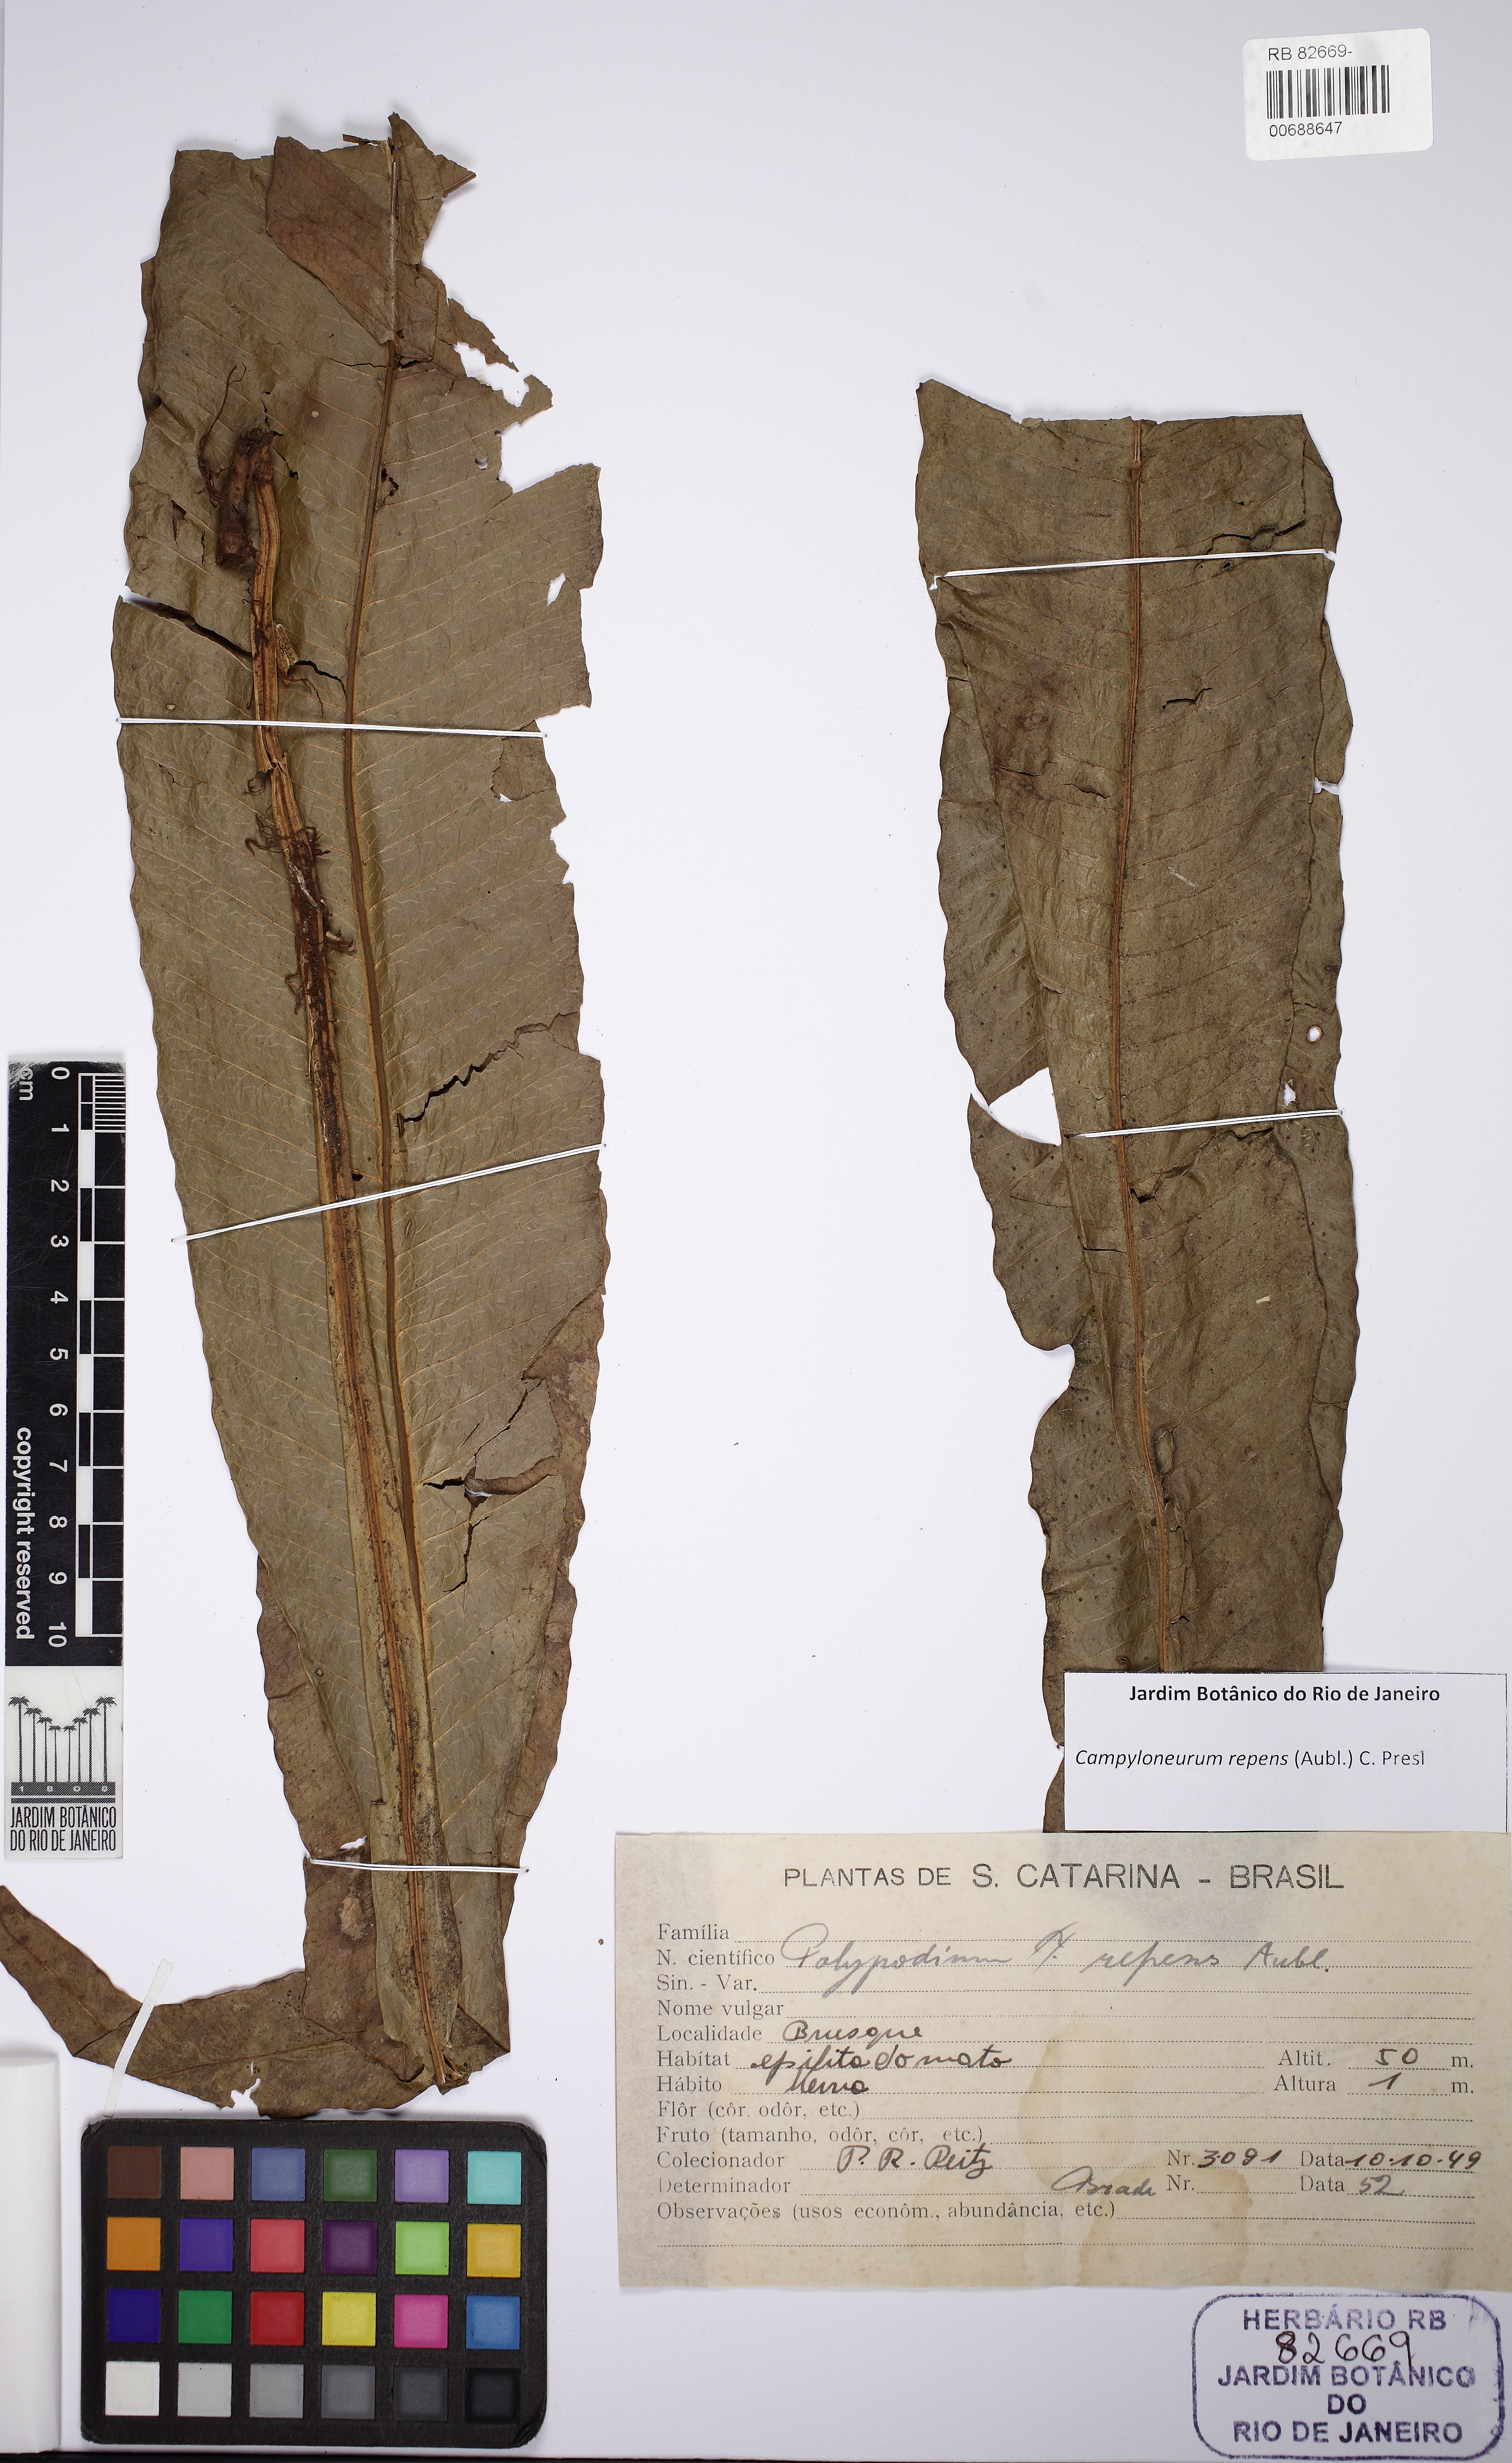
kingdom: Plantae
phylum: Tracheophyta
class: Polypodiopsida
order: Polypodiales
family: Polypodiaceae
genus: Campyloneurum
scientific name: Campyloneurum repens
